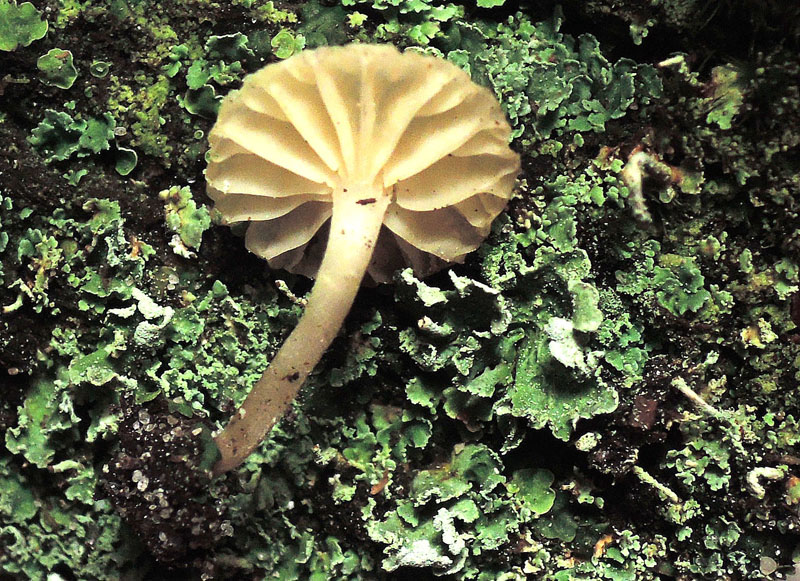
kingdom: Fungi
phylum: Basidiomycota
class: Agaricomycetes
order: Agaricales
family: Hygrophoraceae
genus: Lichenomphalia
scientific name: Lichenomphalia hudsoniana
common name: thallus-lavhat
